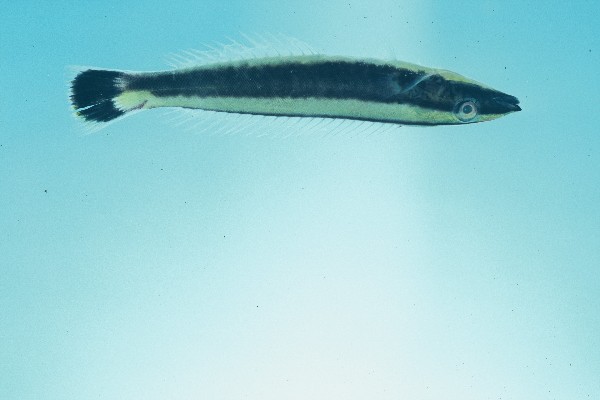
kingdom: Animalia
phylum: Chordata
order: Perciformes
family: Labridae
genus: Hologymnosus
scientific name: Hologymnosus annulatus
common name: Ring wrasse
